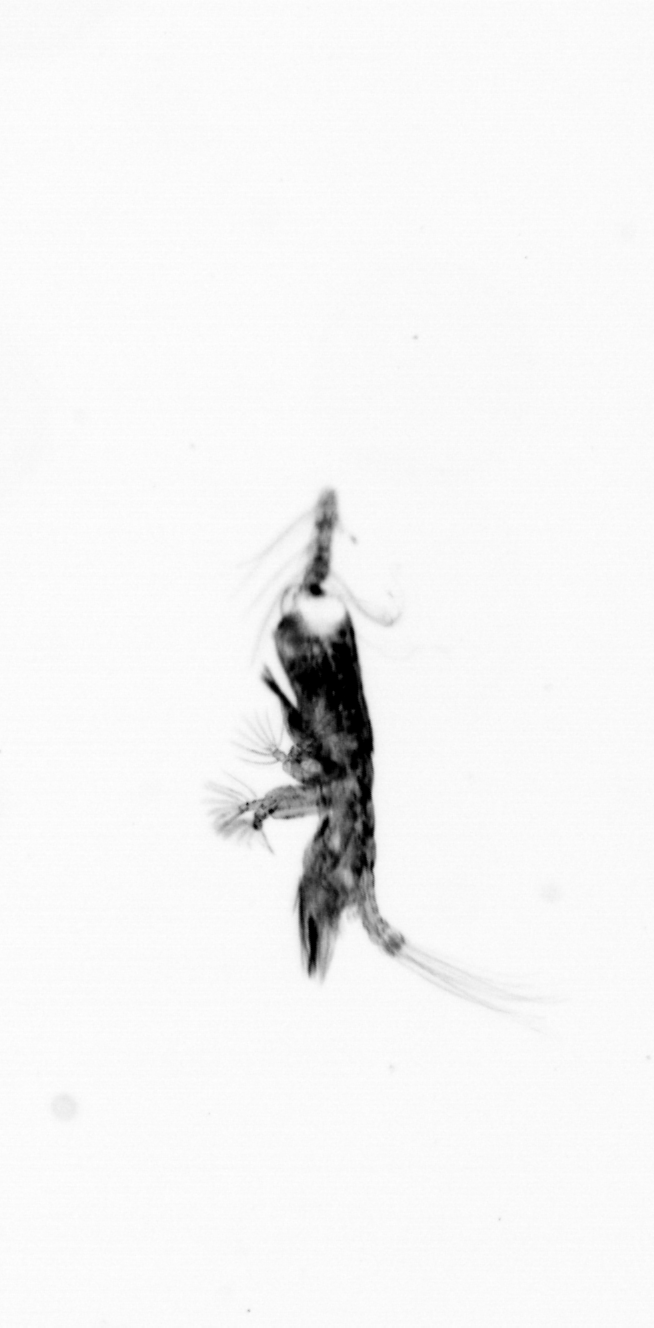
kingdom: Animalia
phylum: Arthropoda
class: Copepoda
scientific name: Copepoda
